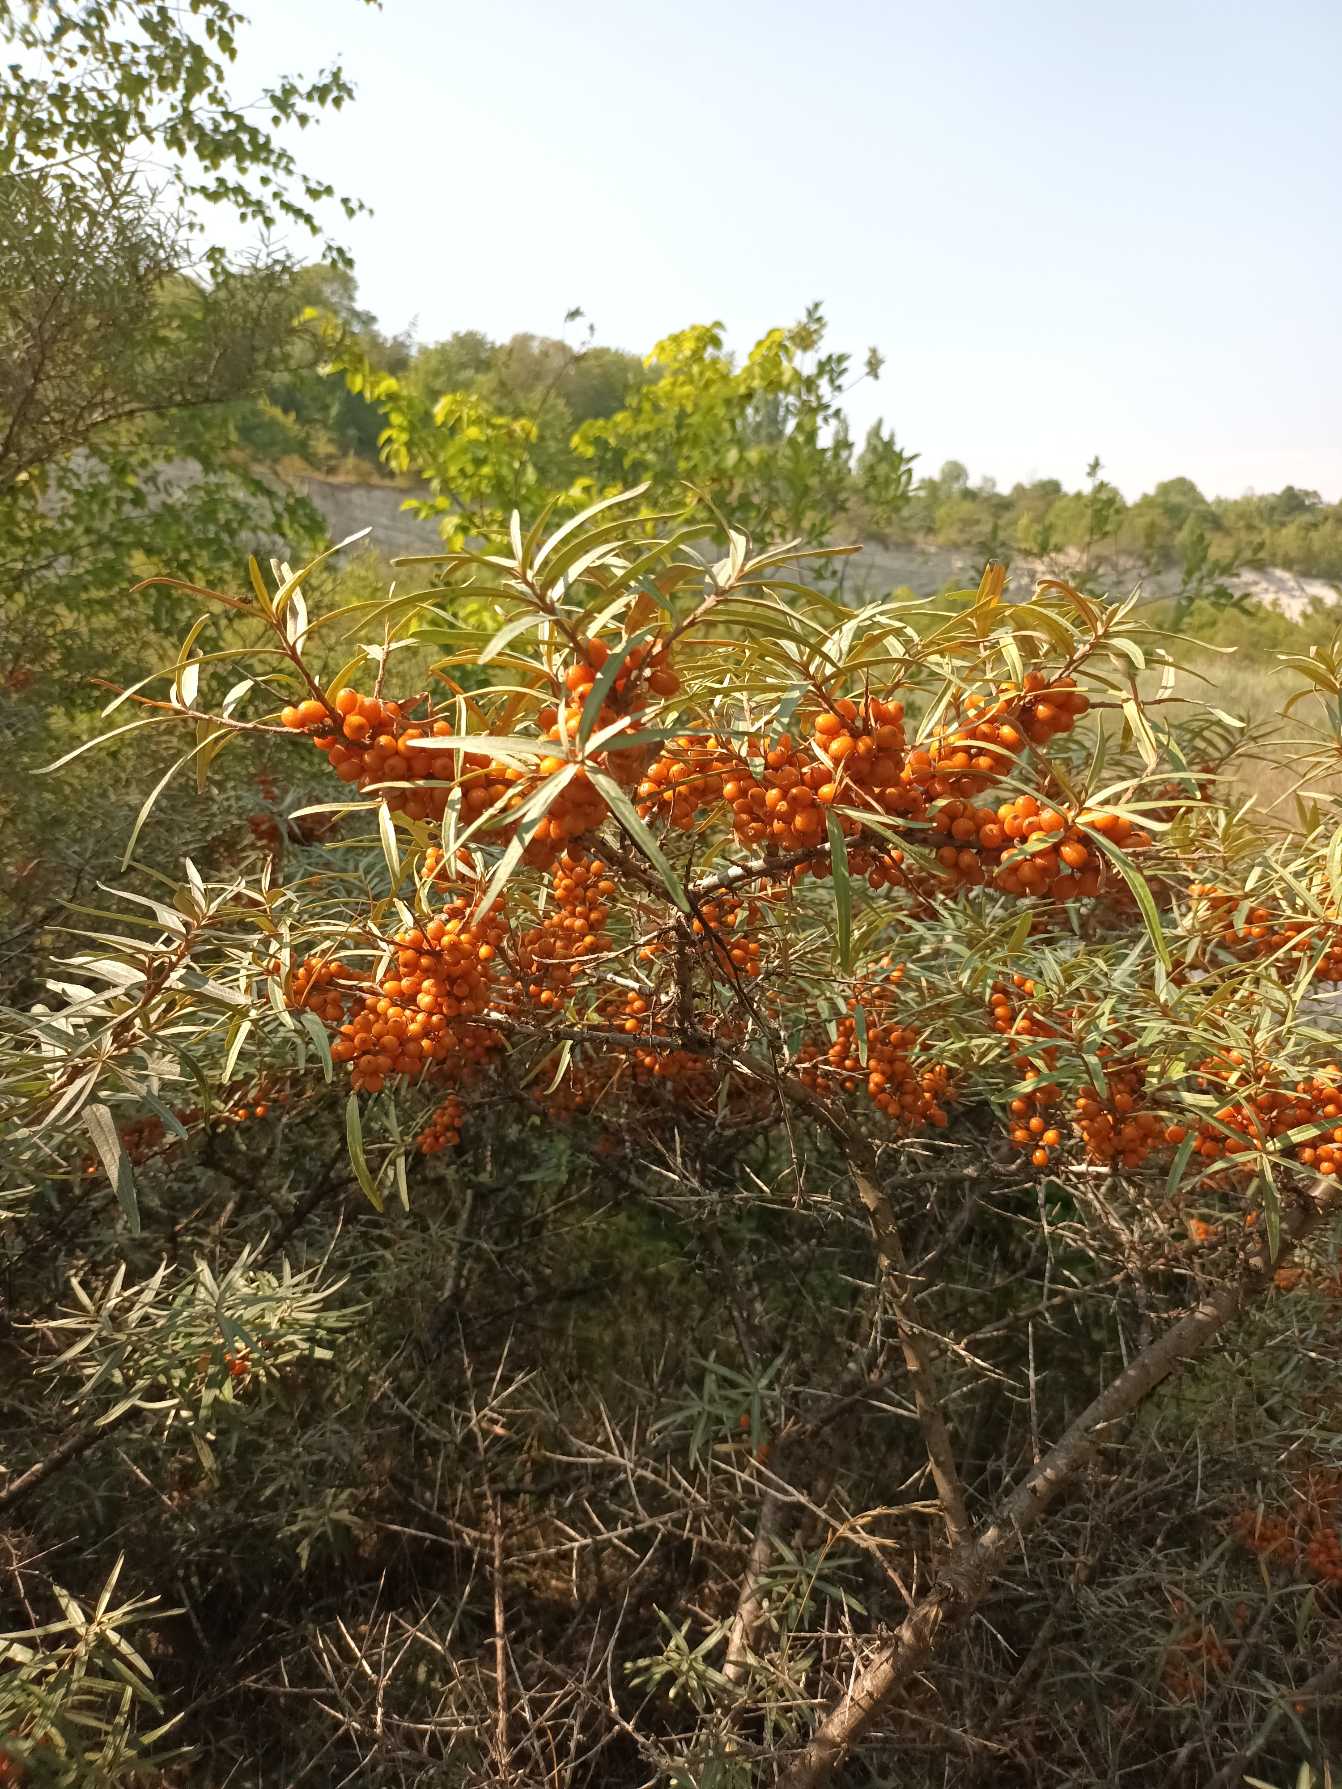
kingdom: Plantae
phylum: Tracheophyta
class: Magnoliopsida
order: Rosales
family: Elaeagnaceae
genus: Hippophae
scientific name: Hippophae rhamnoides
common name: Havtorn
